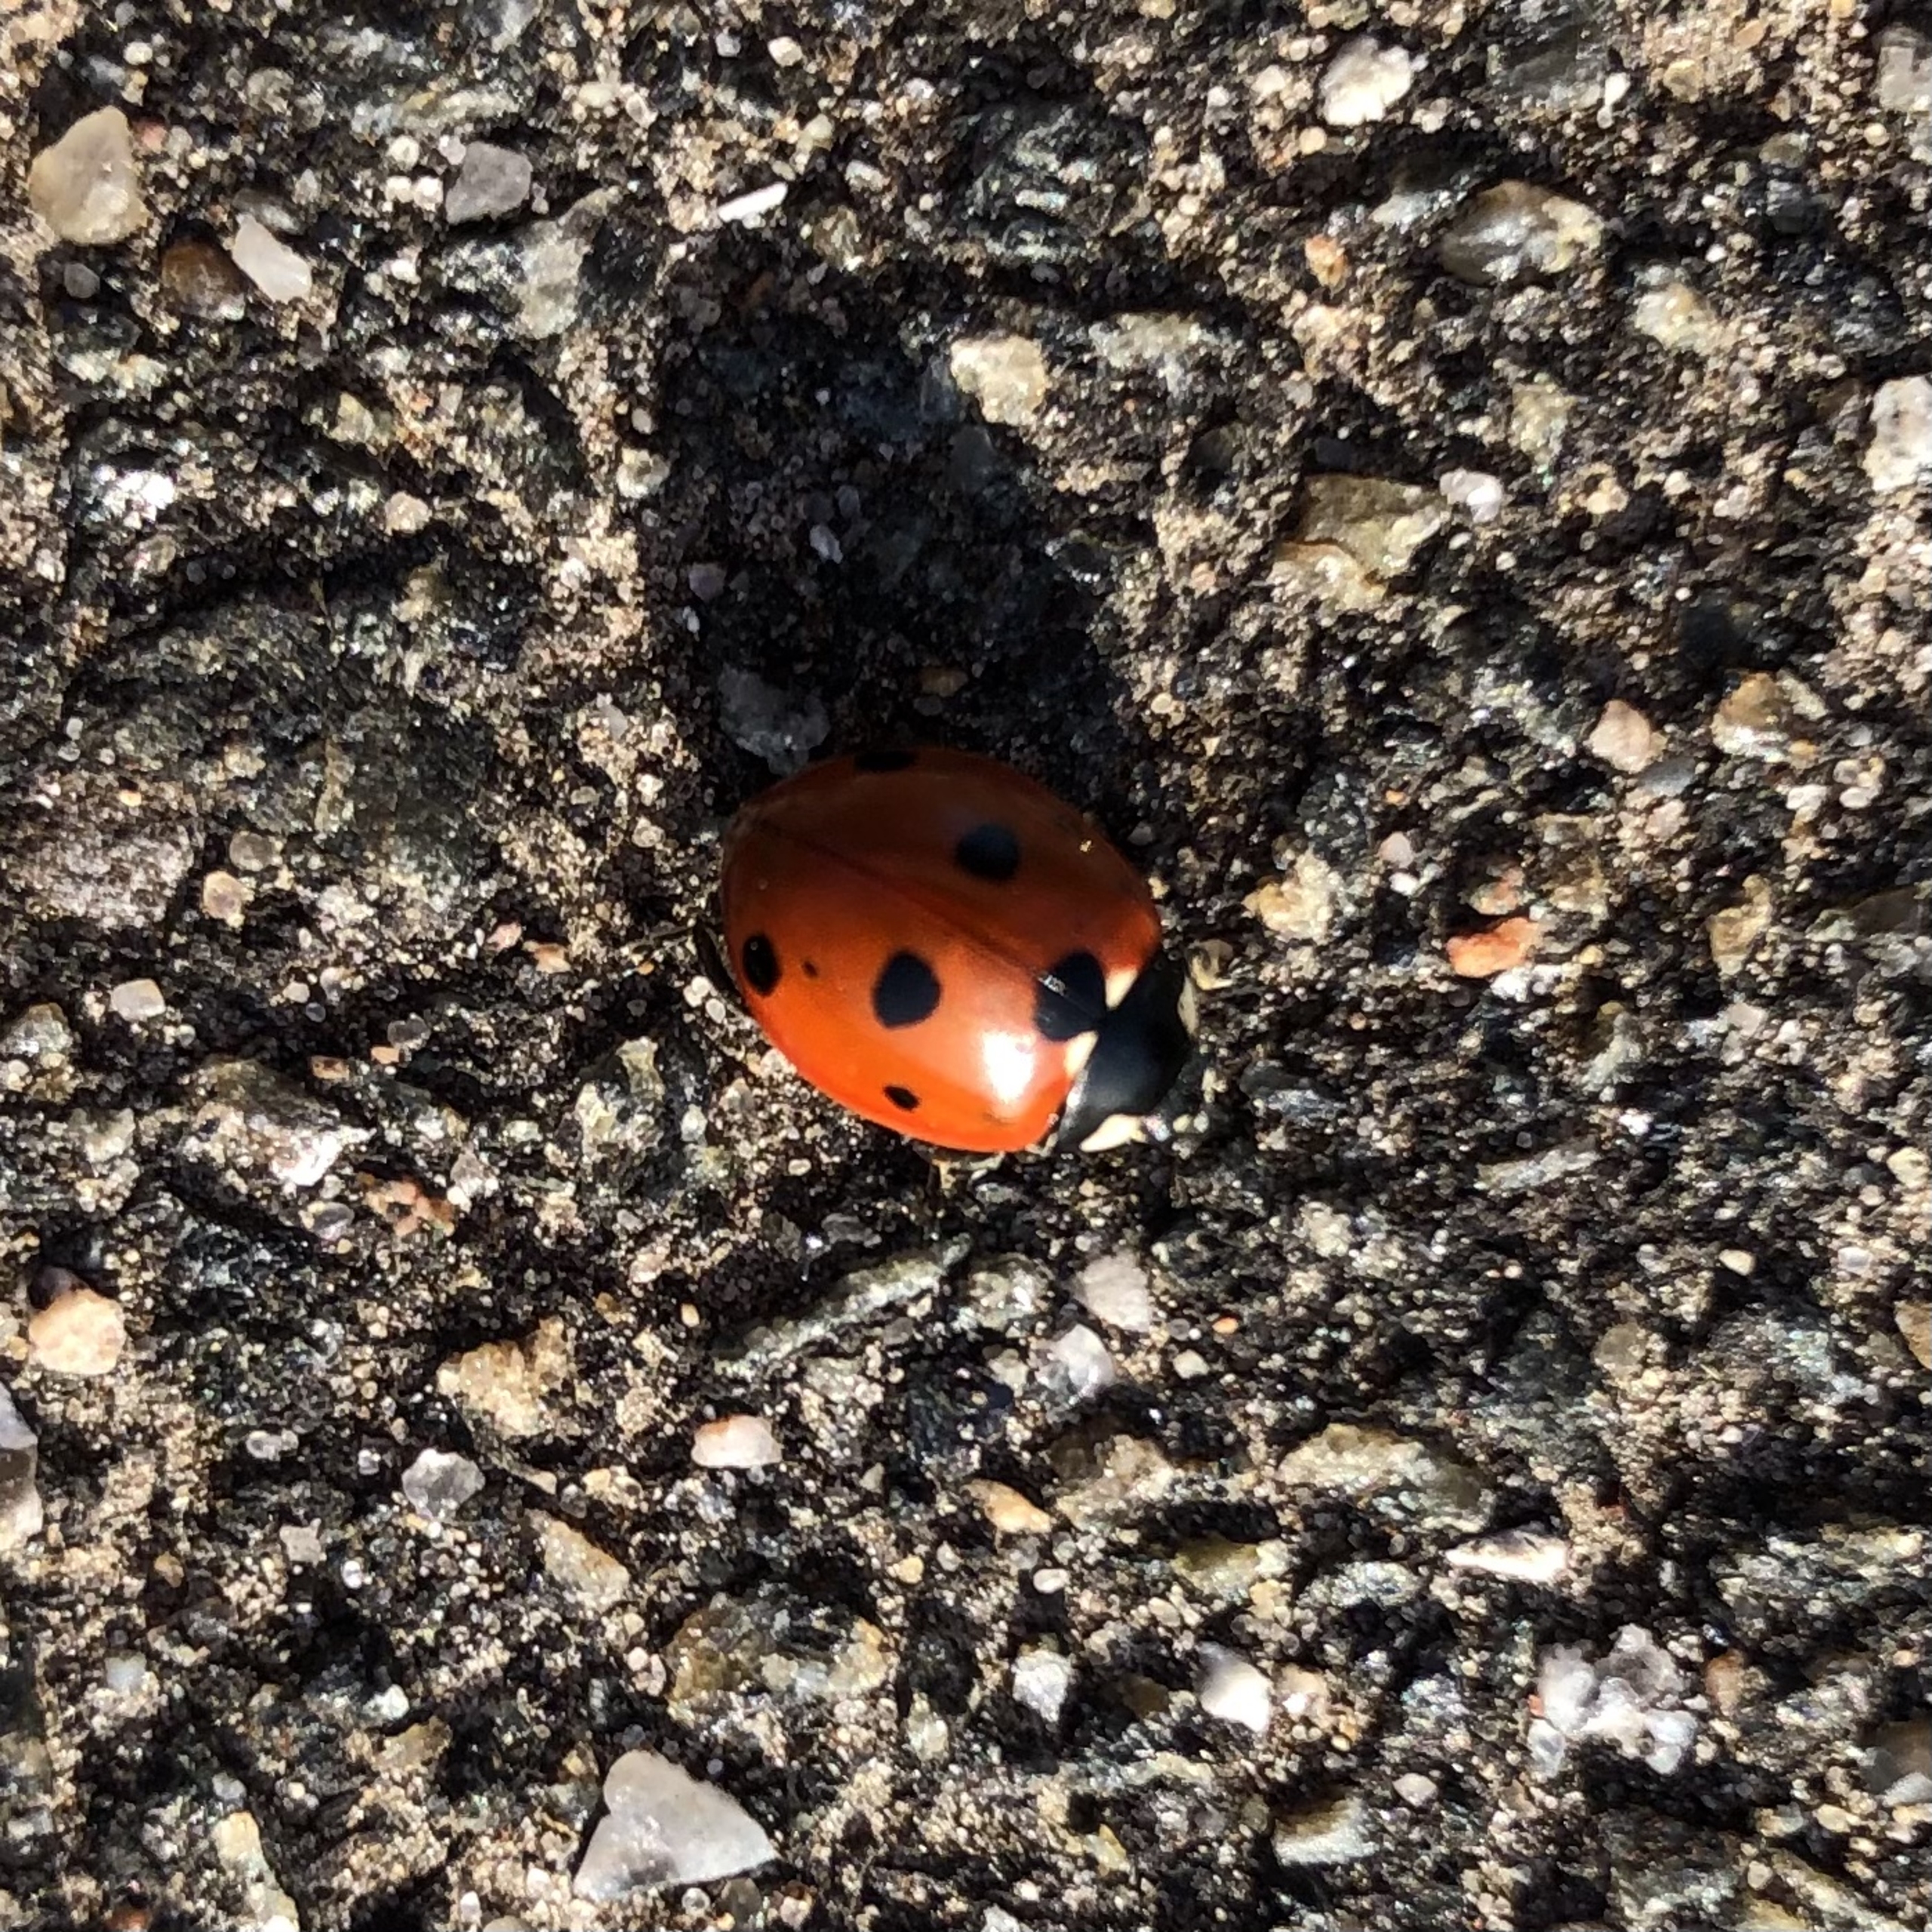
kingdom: Animalia
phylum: Arthropoda
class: Insecta
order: Coleoptera
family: Coccinellidae
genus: Coccinella
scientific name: Coccinella septempunctata
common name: Syvplettet mariehøne
